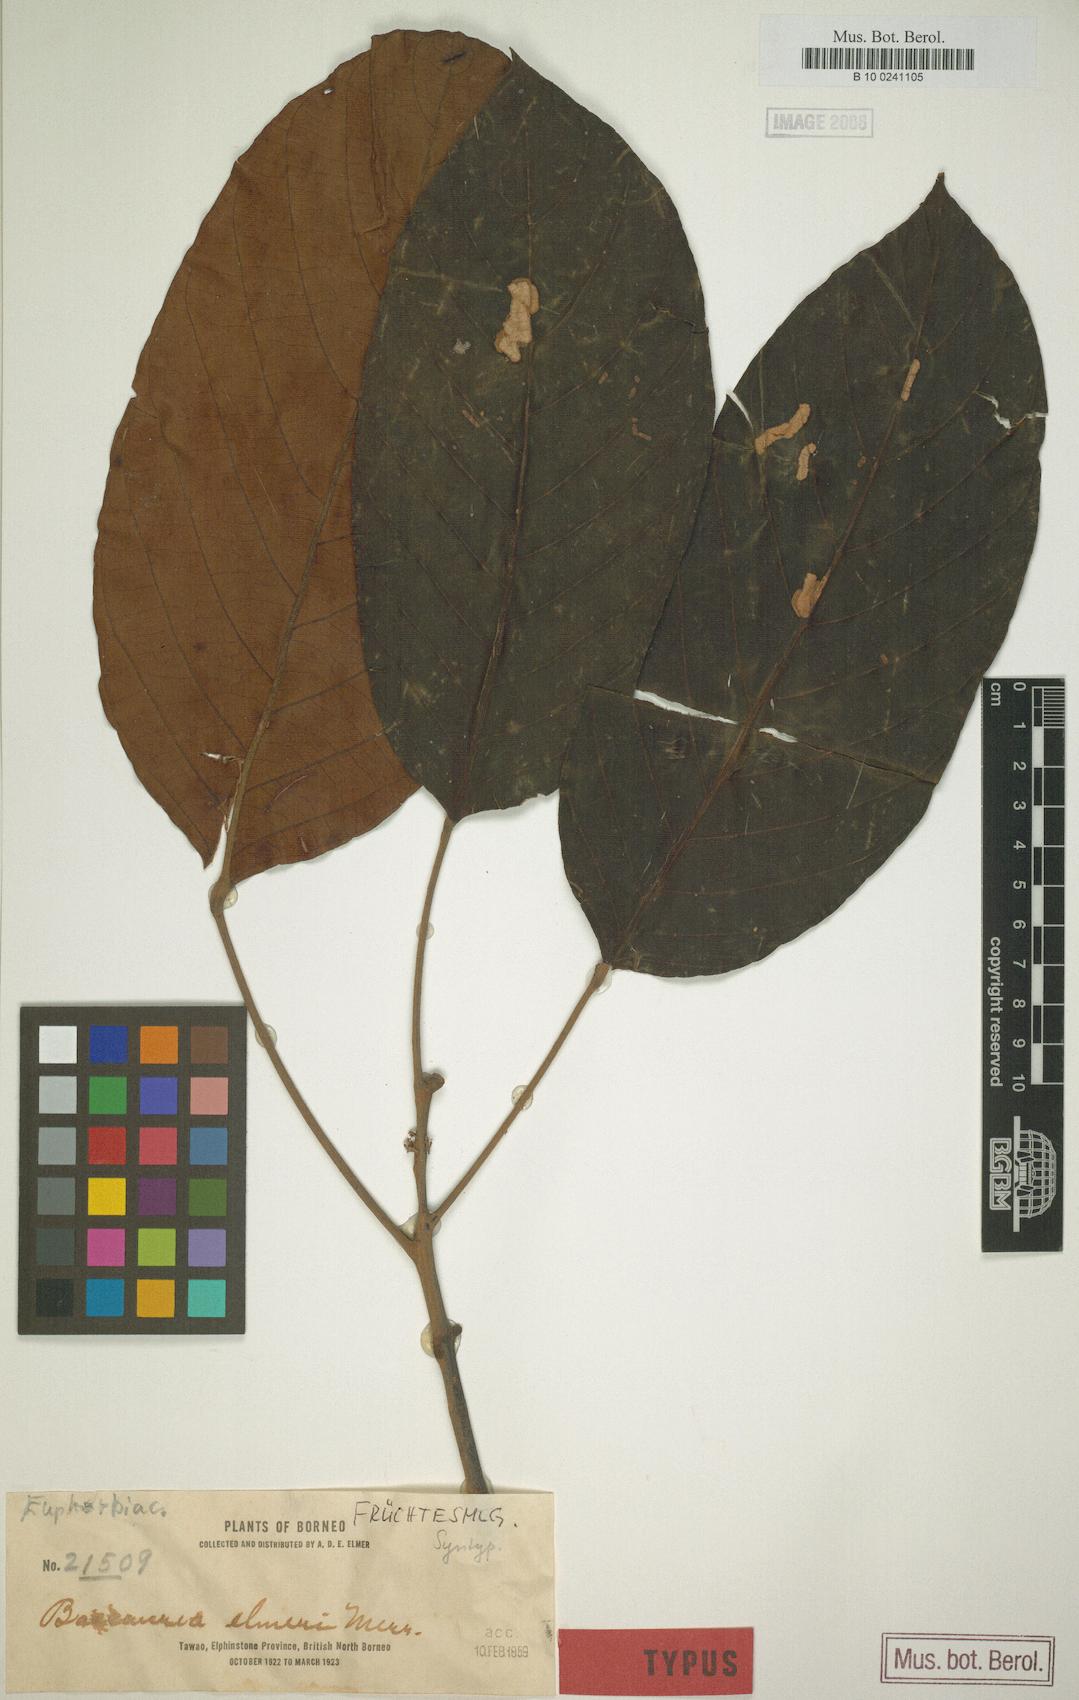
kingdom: Plantae
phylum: Tracheophyta
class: Magnoliopsida
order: Malpighiales
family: Phyllanthaceae
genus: Baccaurea
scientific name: Baccaurea pubera
